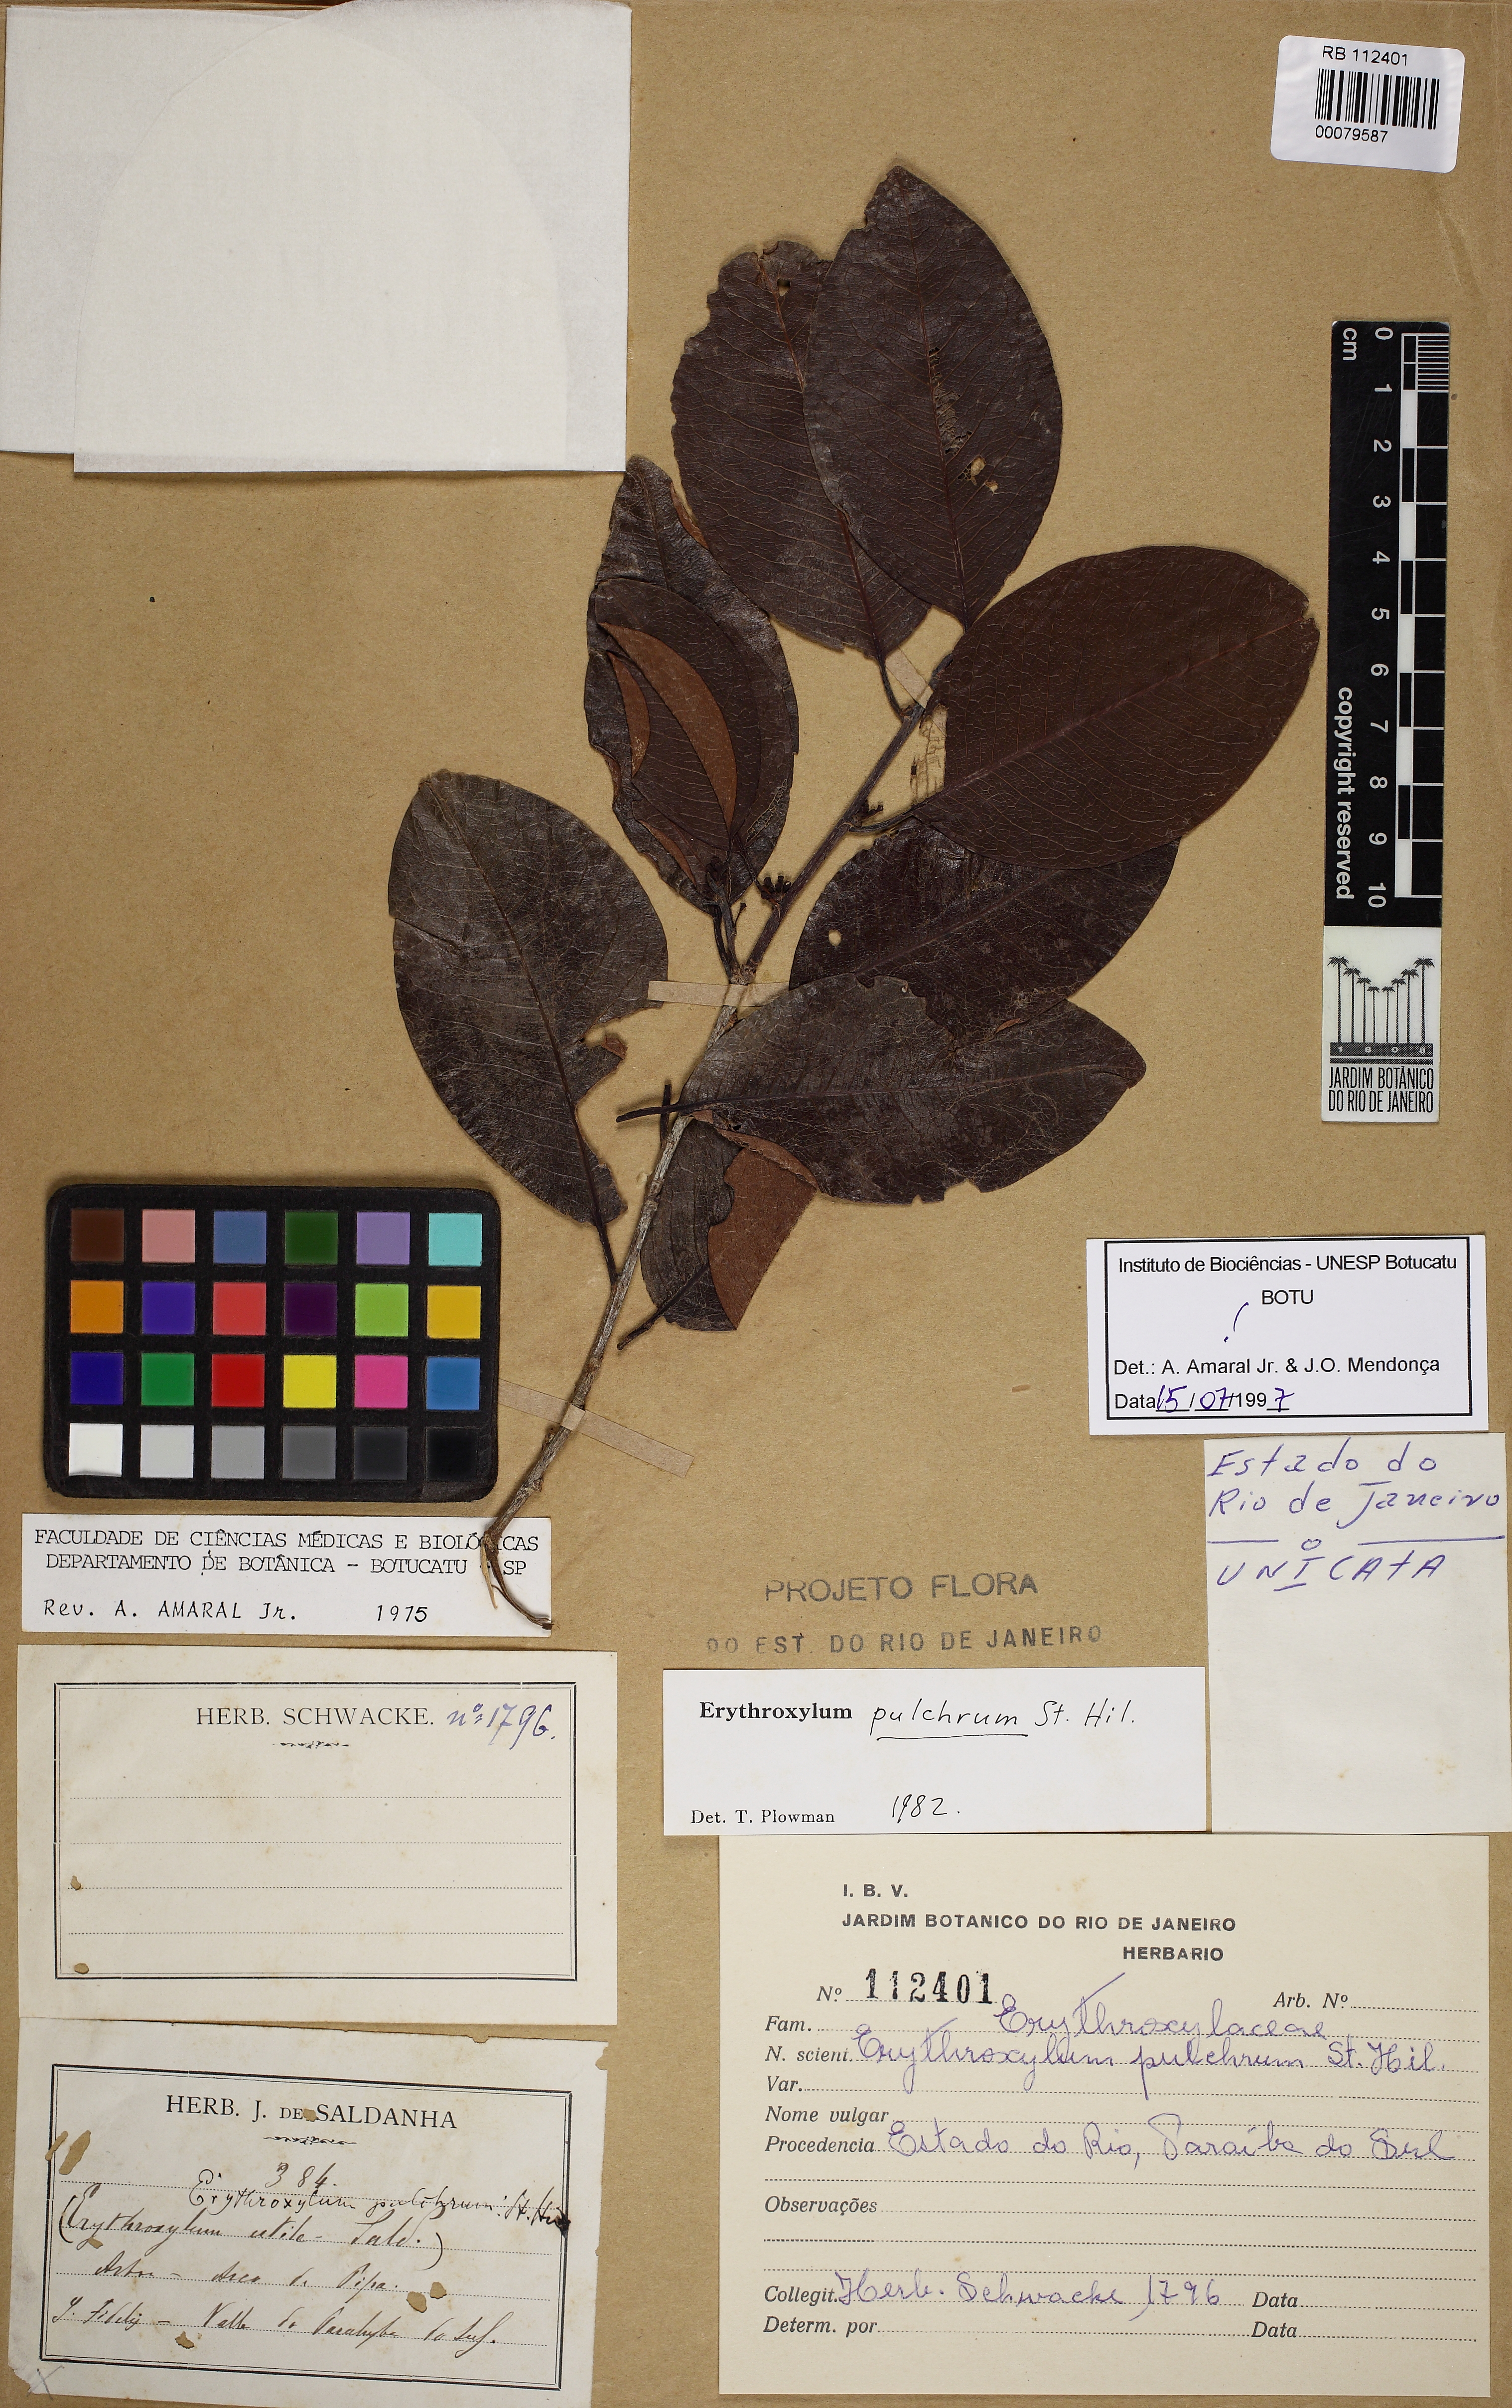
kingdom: Plantae
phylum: Tracheophyta
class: Magnoliopsida
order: Malpighiales
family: Erythroxylaceae
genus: Erythroxylum
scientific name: Erythroxylum pulchrum
